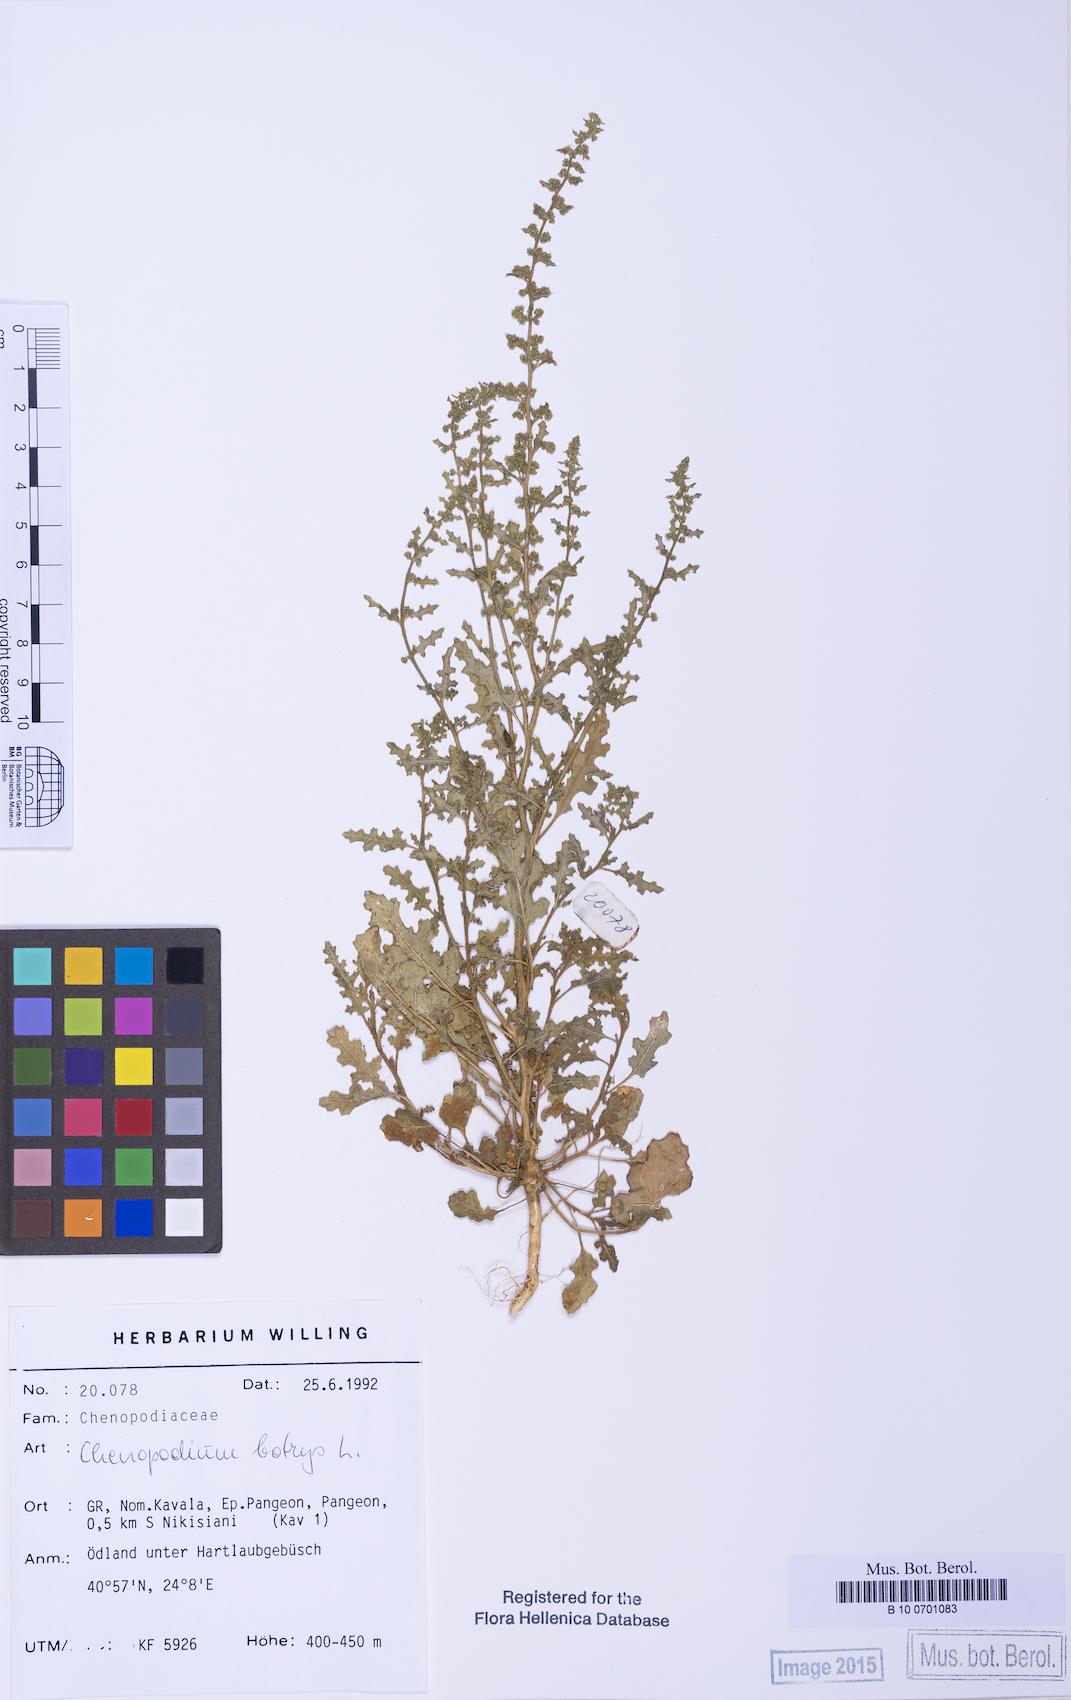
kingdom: Plantae
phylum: Tracheophyta
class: Magnoliopsida
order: Caryophyllales
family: Amaranthaceae
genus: Dysphania
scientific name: Dysphania botrys
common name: Feather-geranium
